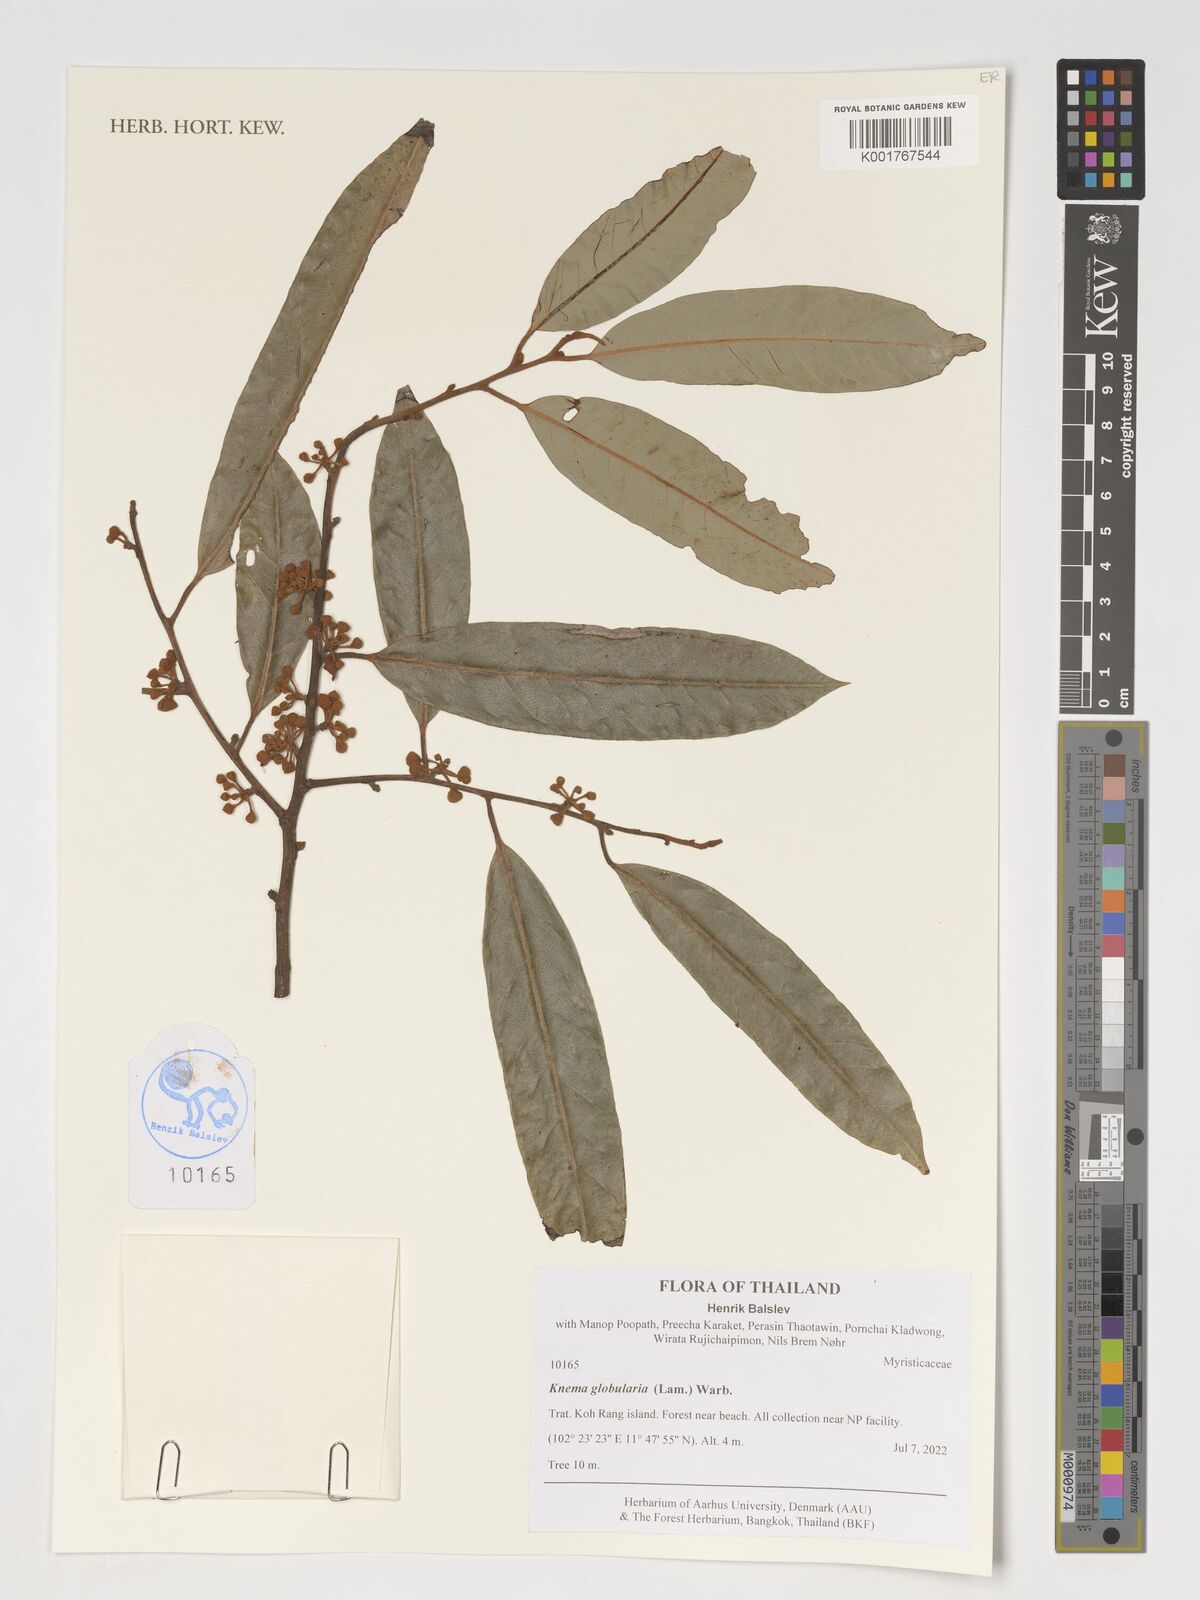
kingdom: Plantae
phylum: Tracheophyta
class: Magnoliopsida
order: Magnoliales
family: Myristicaceae
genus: Knema
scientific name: Knema globularia
